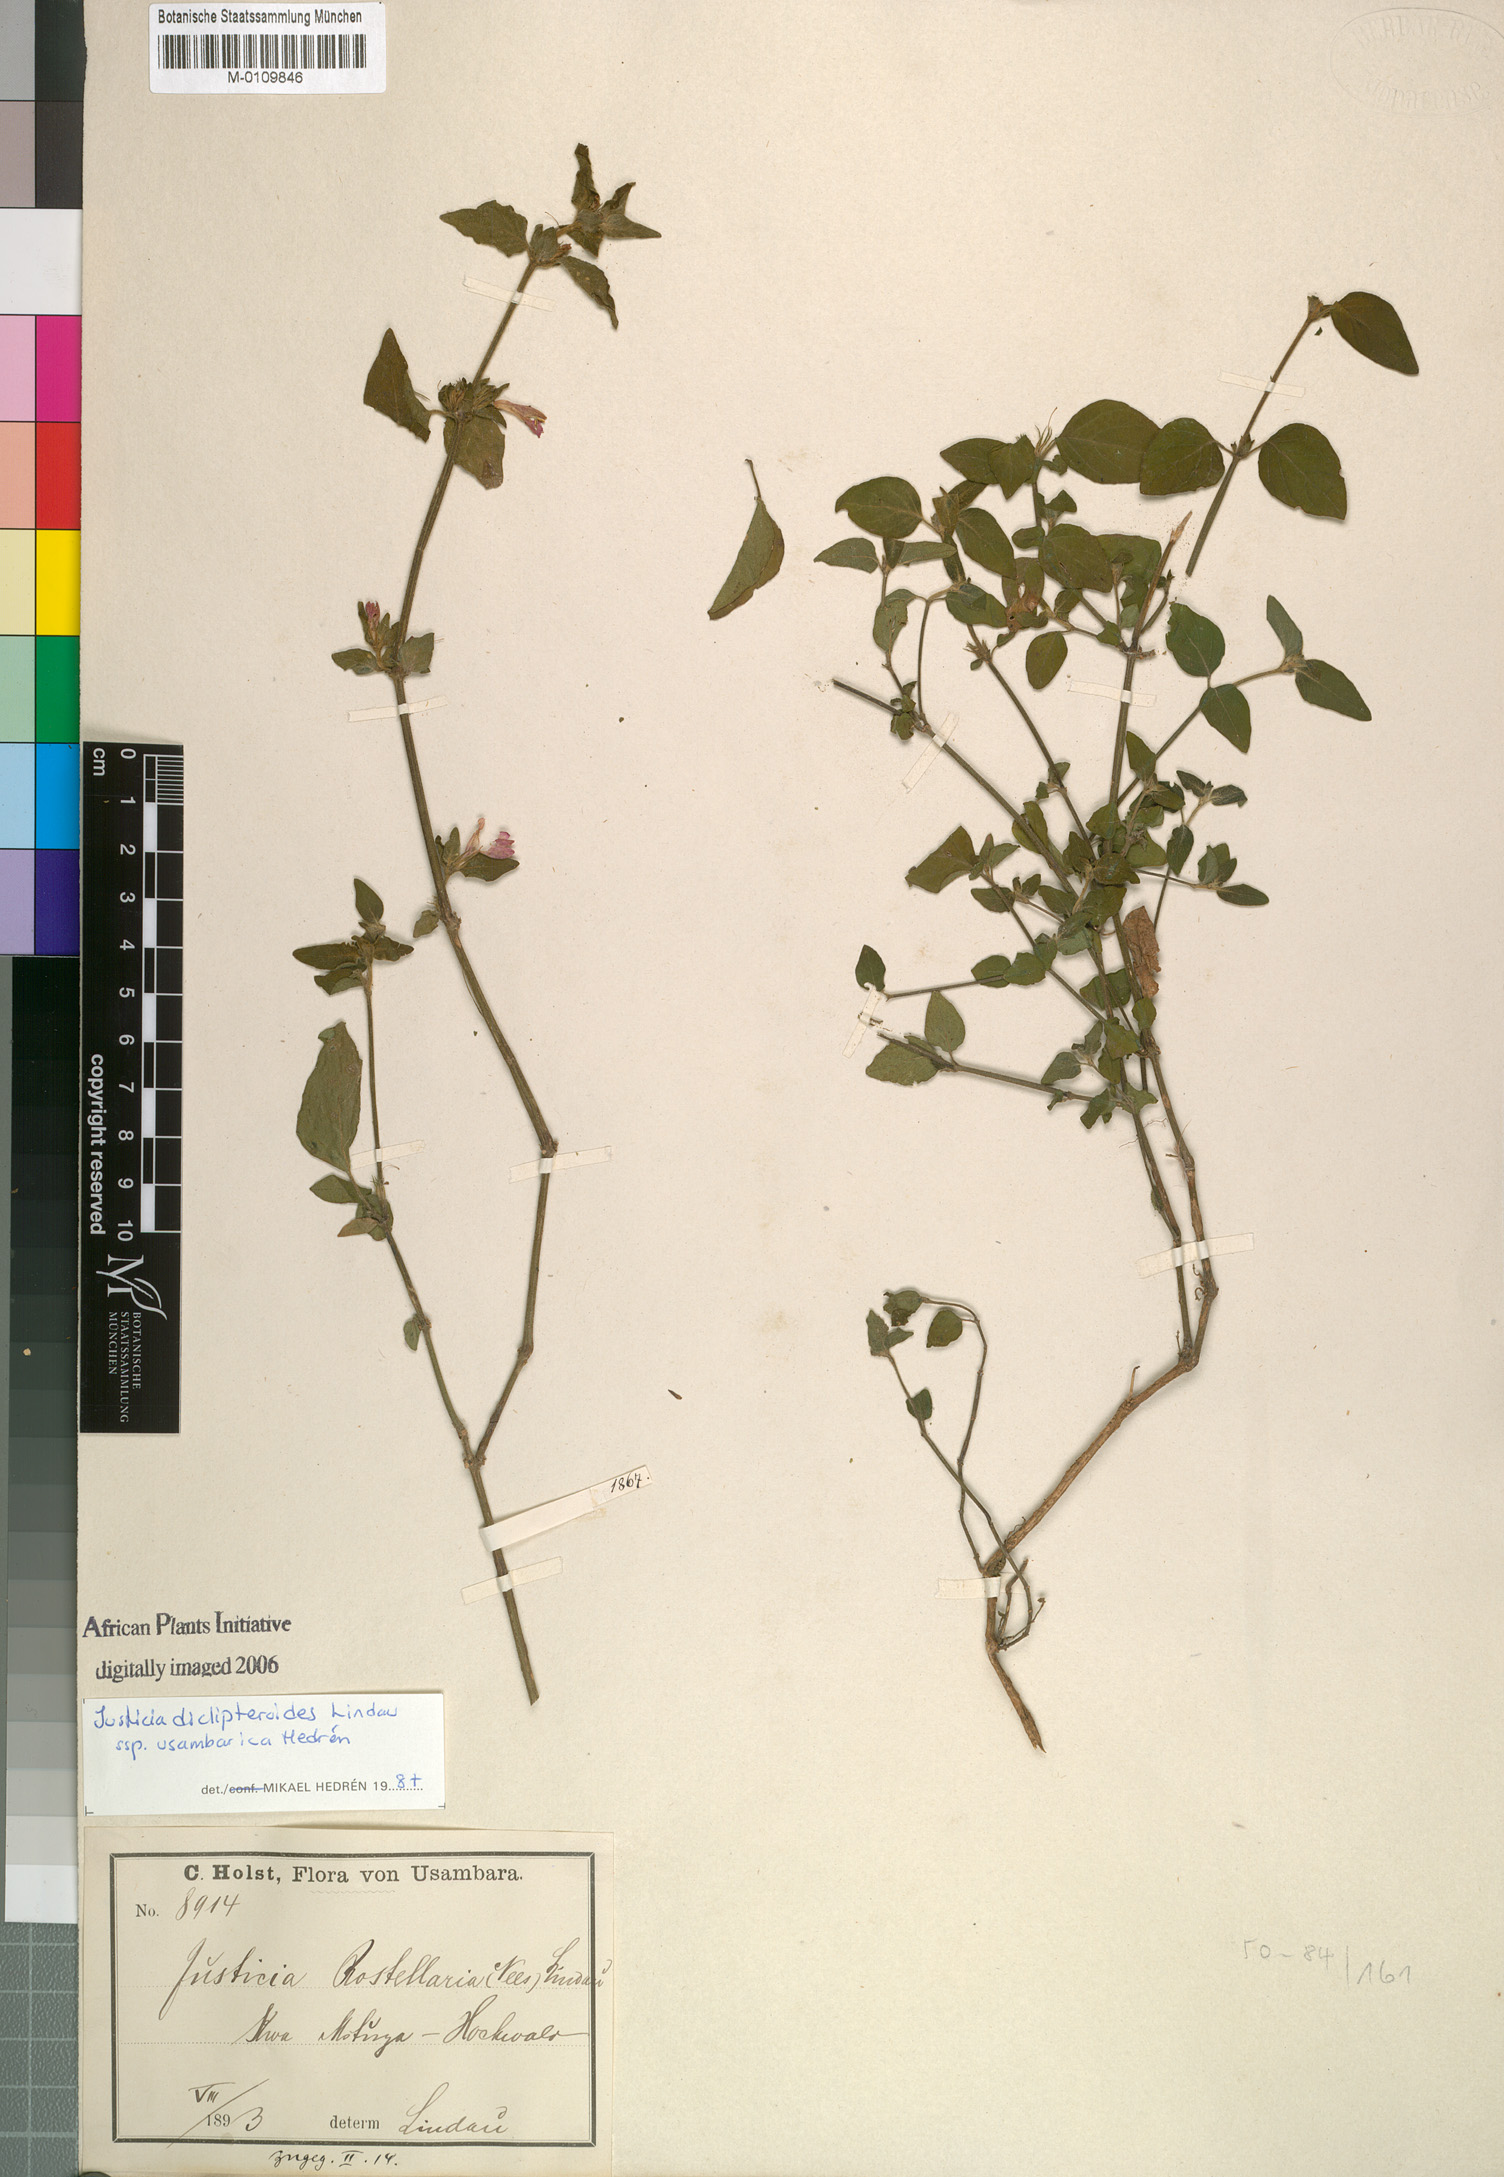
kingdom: Plantae
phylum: Tracheophyta
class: Magnoliopsida
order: Lamiales
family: Acanthaceae
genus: Justicia
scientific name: Justicia diclipteroides
